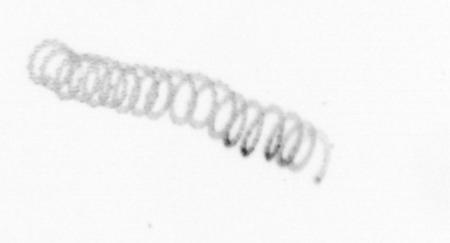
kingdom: Chromista
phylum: Ochrophyta
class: Bacillariophyceae
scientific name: Bacillariophyceae
